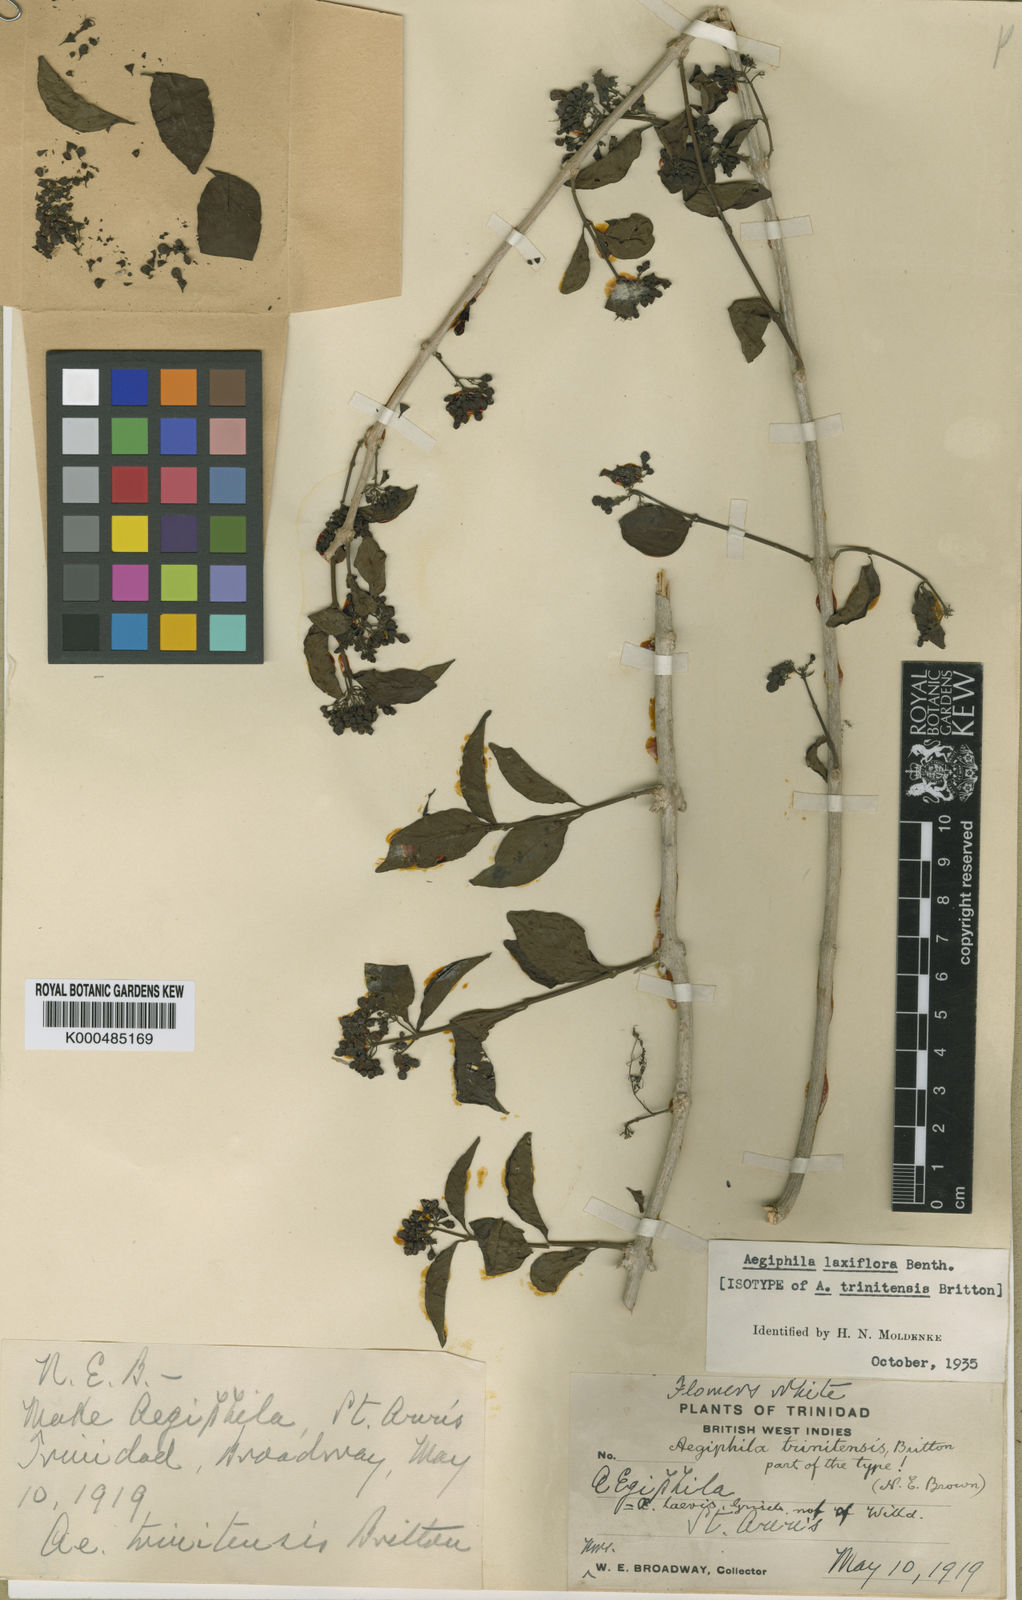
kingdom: Plantae
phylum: Tracheophyta
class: Magnoliopsida
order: Lamiales
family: Lamiaceae
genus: Aegiphila
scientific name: Aegiphila laxiflora
